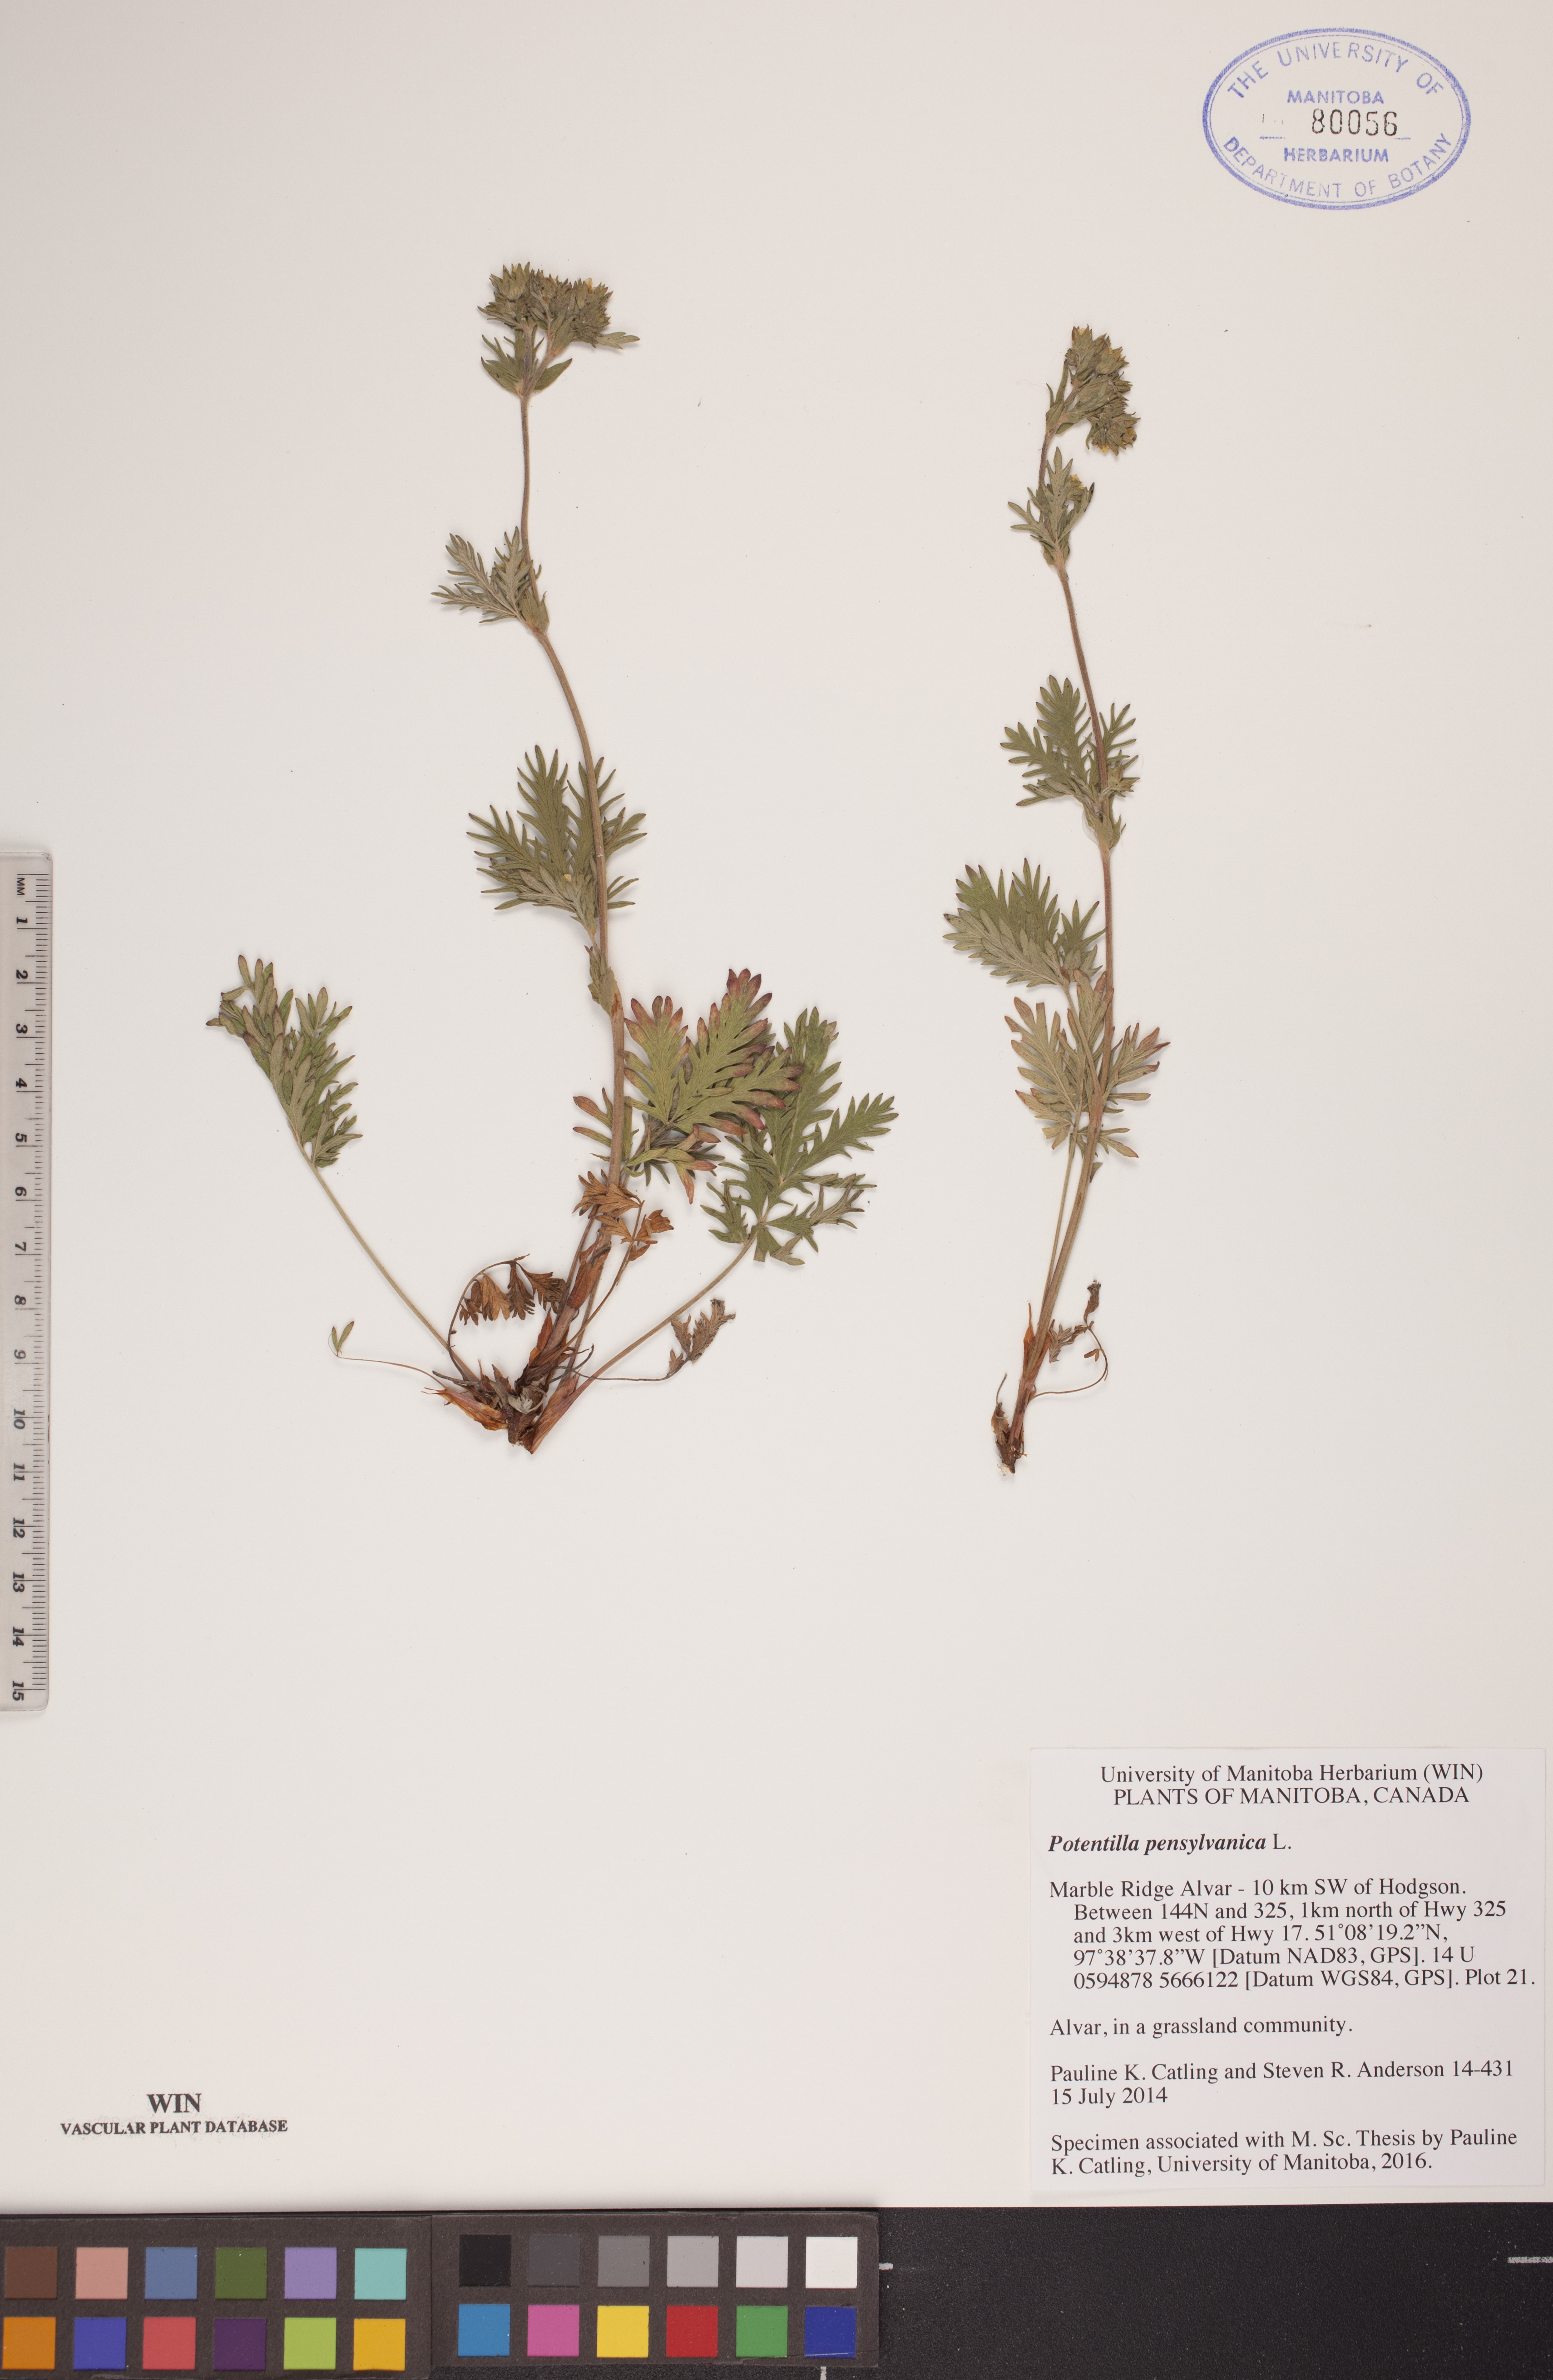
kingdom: Plantae
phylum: Tracheophyta
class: Magnoliopsida
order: Rosales
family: Rosaceae
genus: Potentilla
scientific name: Potentilla pensylvanica
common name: Pennsylvania cinquefoil
